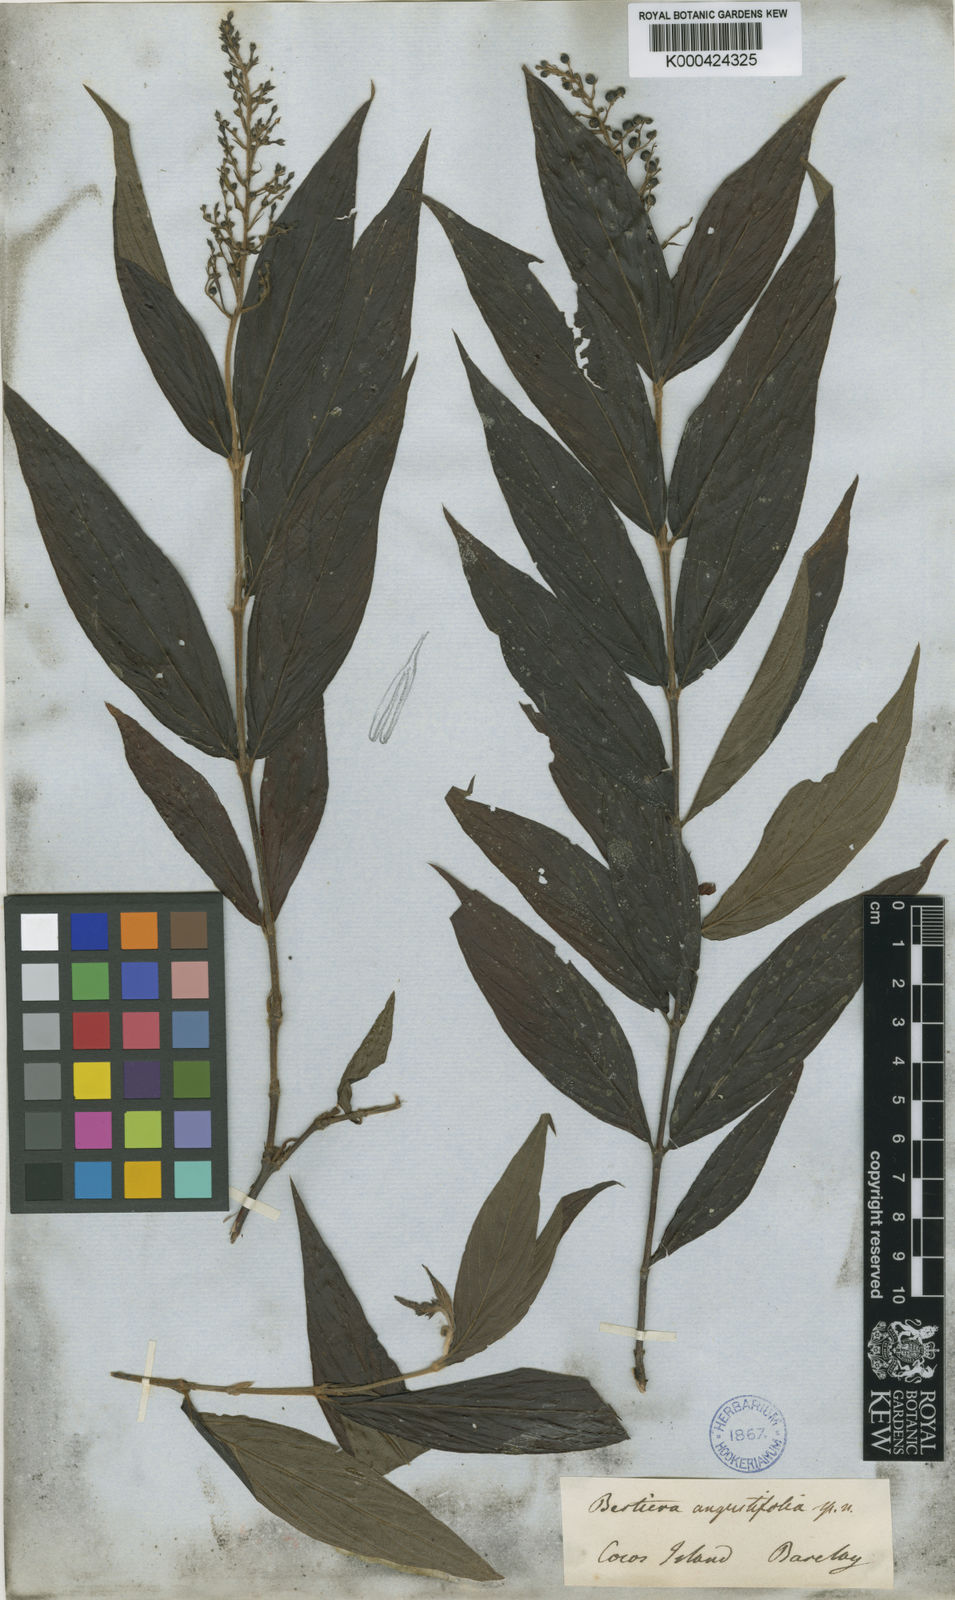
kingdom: Plantae
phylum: Tracheophyta
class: Magnoliopsida
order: Gentianales
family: Rubiaceae
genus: Bertiera
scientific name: Bertiera angustifolia
